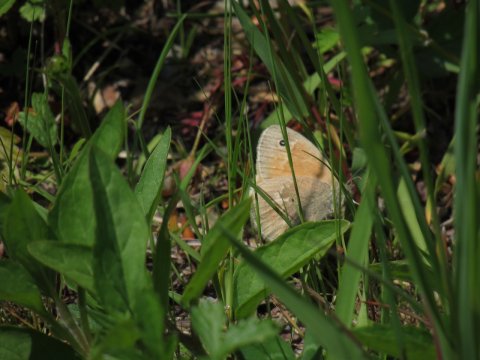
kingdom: Animalia
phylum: Arthropoda
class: Insecta
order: Lepidoptera
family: Nymphalidae
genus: Coenonympha
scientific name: Coenonympha tullia
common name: Large Heath
